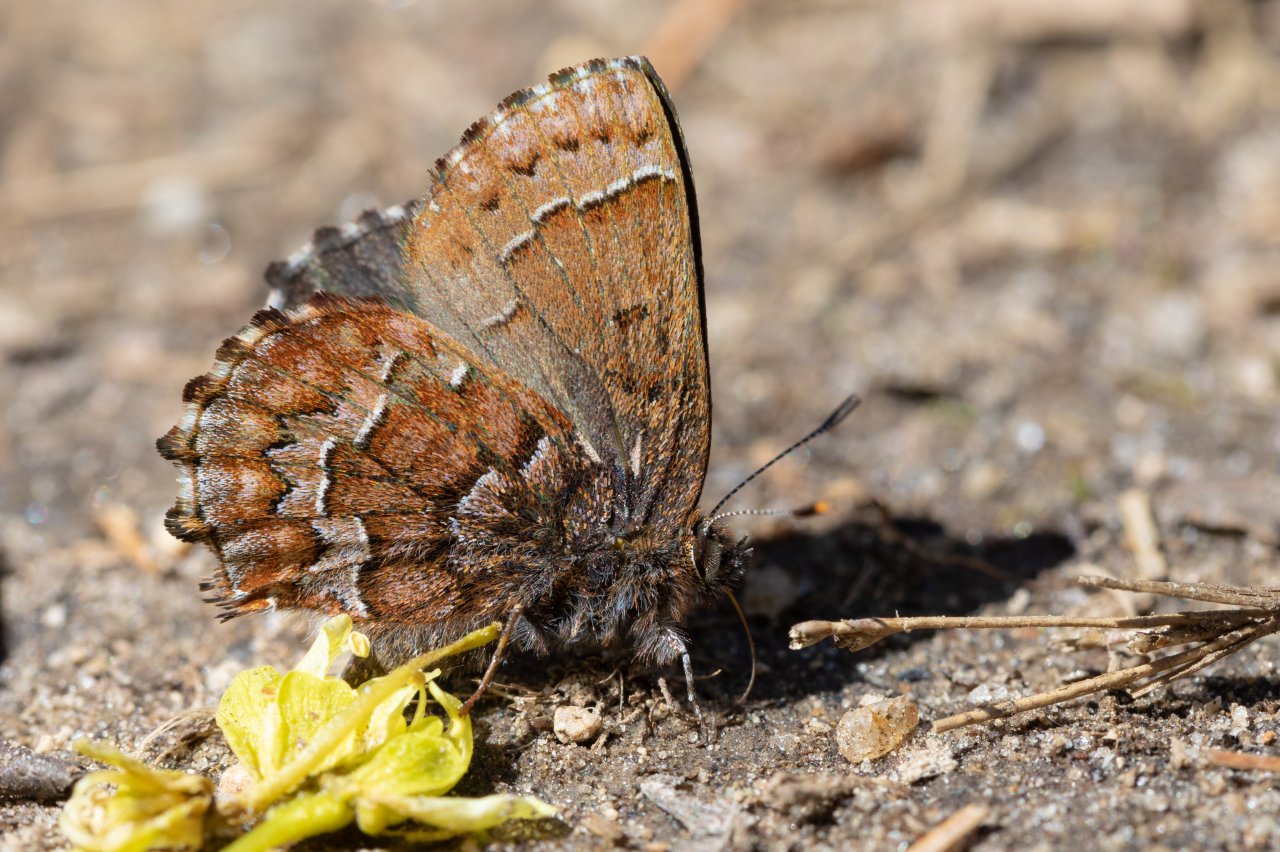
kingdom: Animalia
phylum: Arthropoda
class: Insecta
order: Lepidoptera
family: Lycaenidae
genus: Incisalia
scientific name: Incisalia niphon
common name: Eastern Pine Elfin
